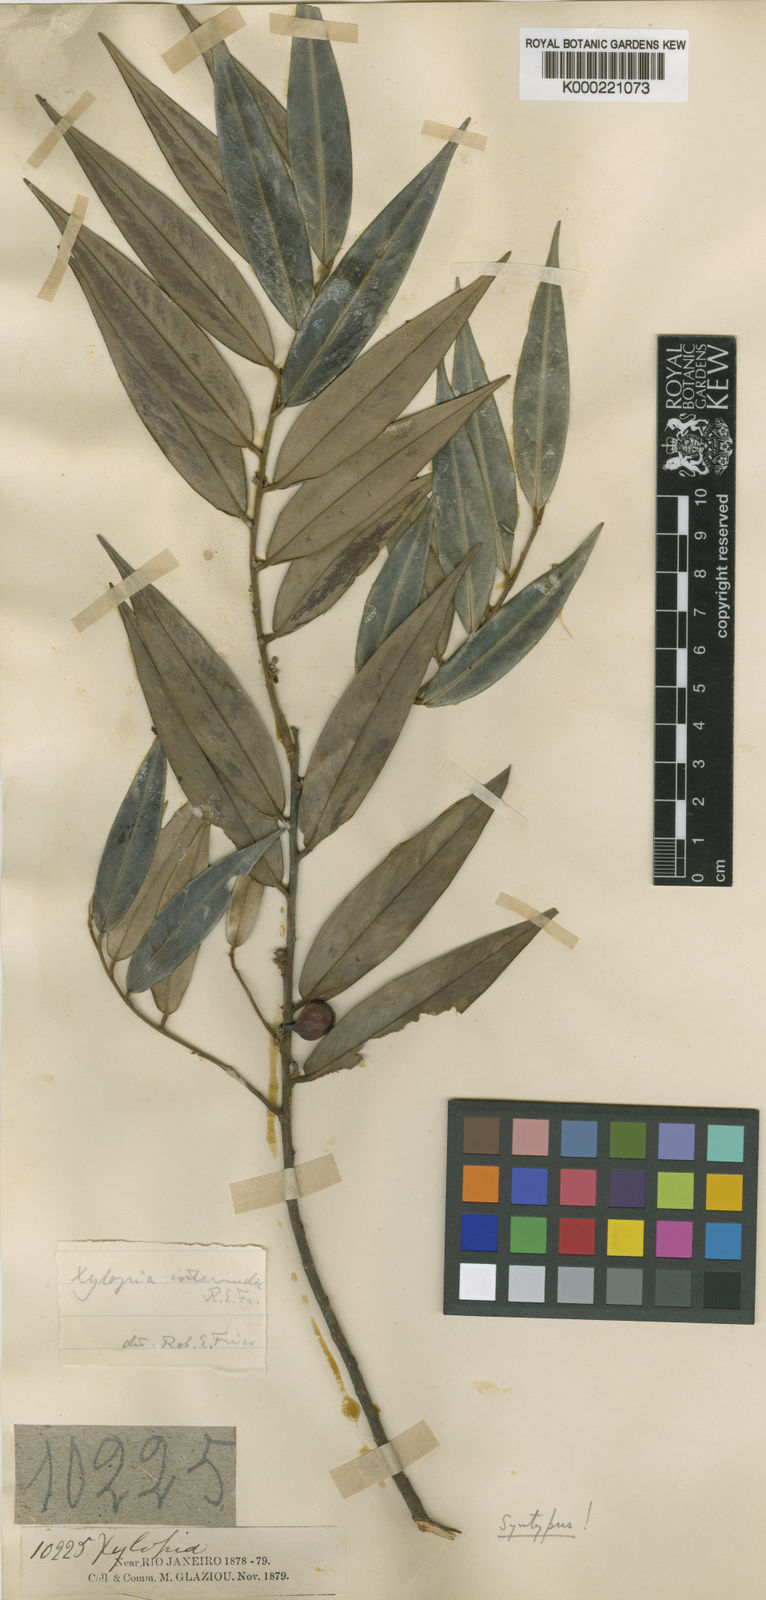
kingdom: Plantae
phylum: Tracheophyta
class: Magnoliopsida
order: Magnoliales
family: Annonaceae
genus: Xylopia
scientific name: Xylopia sericea
